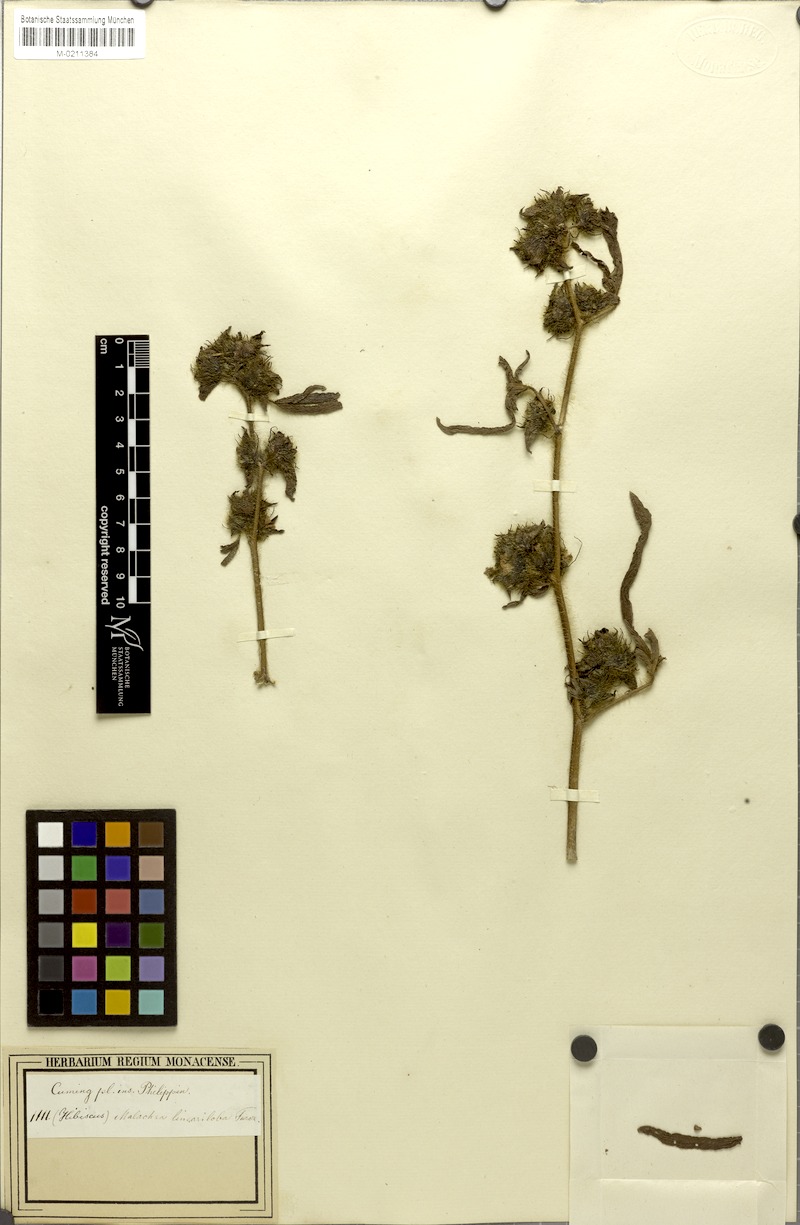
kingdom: Plantae
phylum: Tracheophyta
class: Magnoliopsida
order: Malvales
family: Malvaceae
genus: Malachra
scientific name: Malachra fasciata
